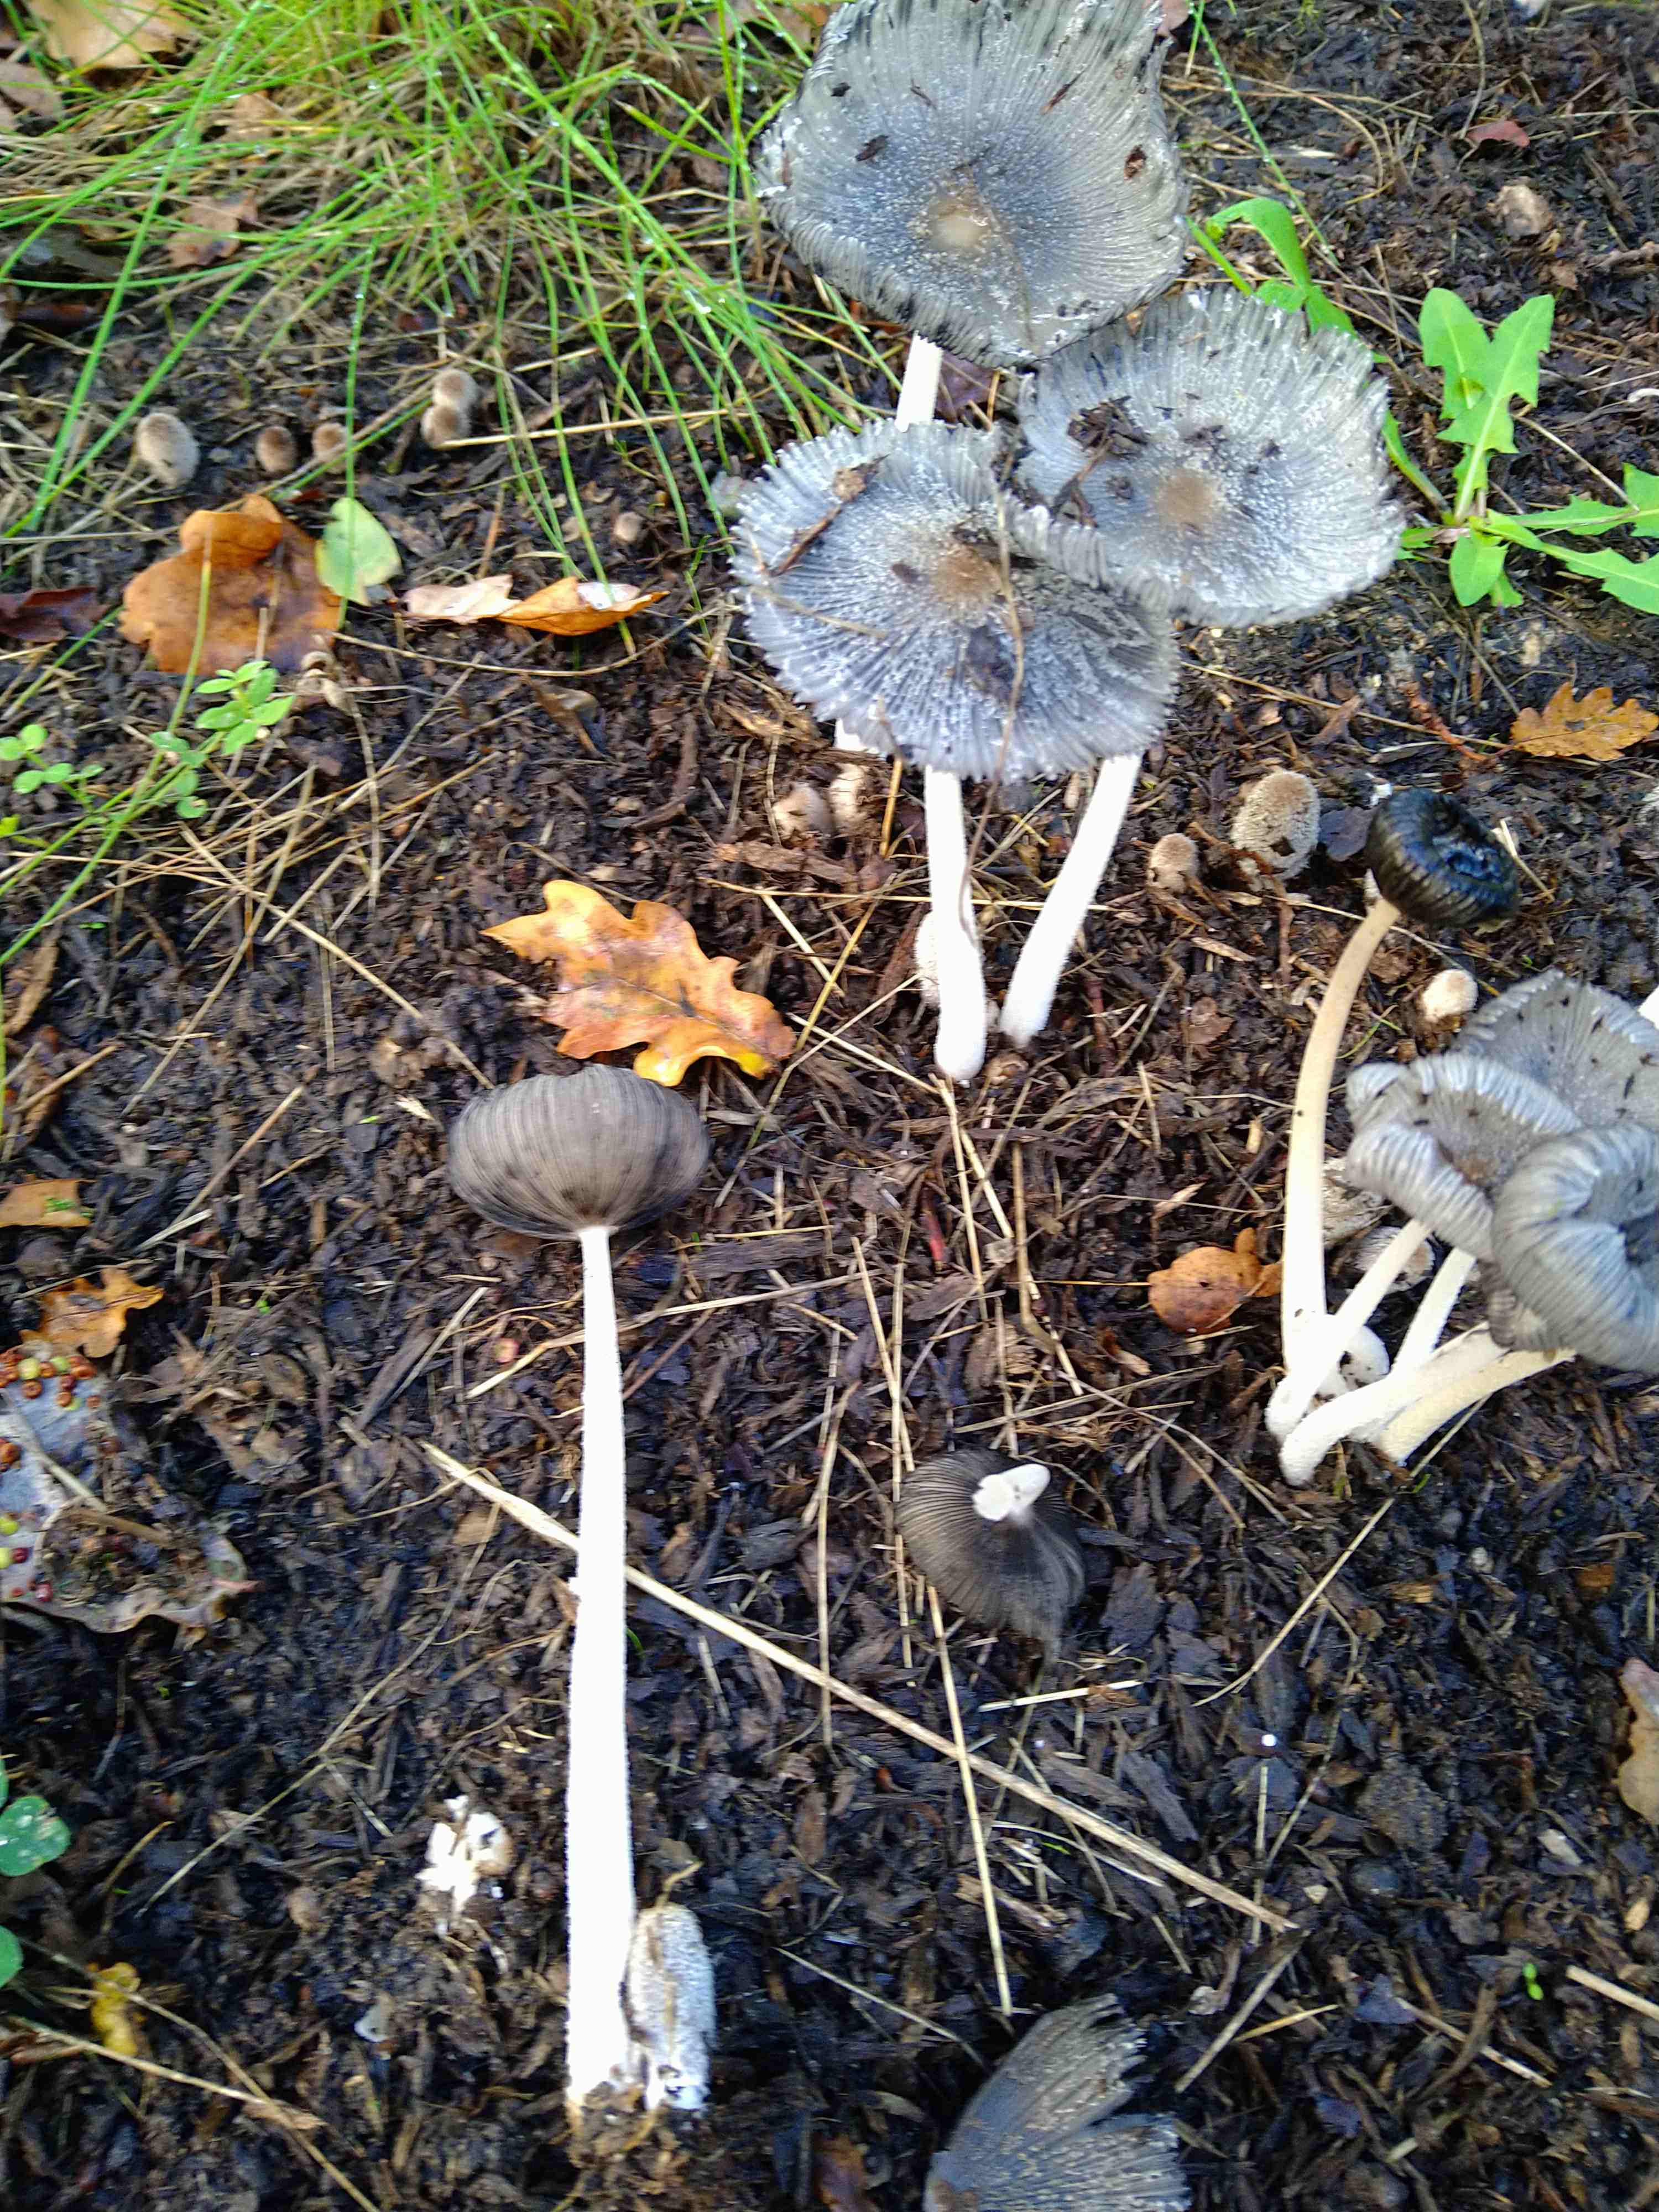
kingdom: Fungi
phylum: Basidiomycota
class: Agaricomycetes
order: Agaricales
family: Psathyrellaceae
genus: Coprinopsis
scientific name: Coprinopsis lagopus
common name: dunstokket blækhat
